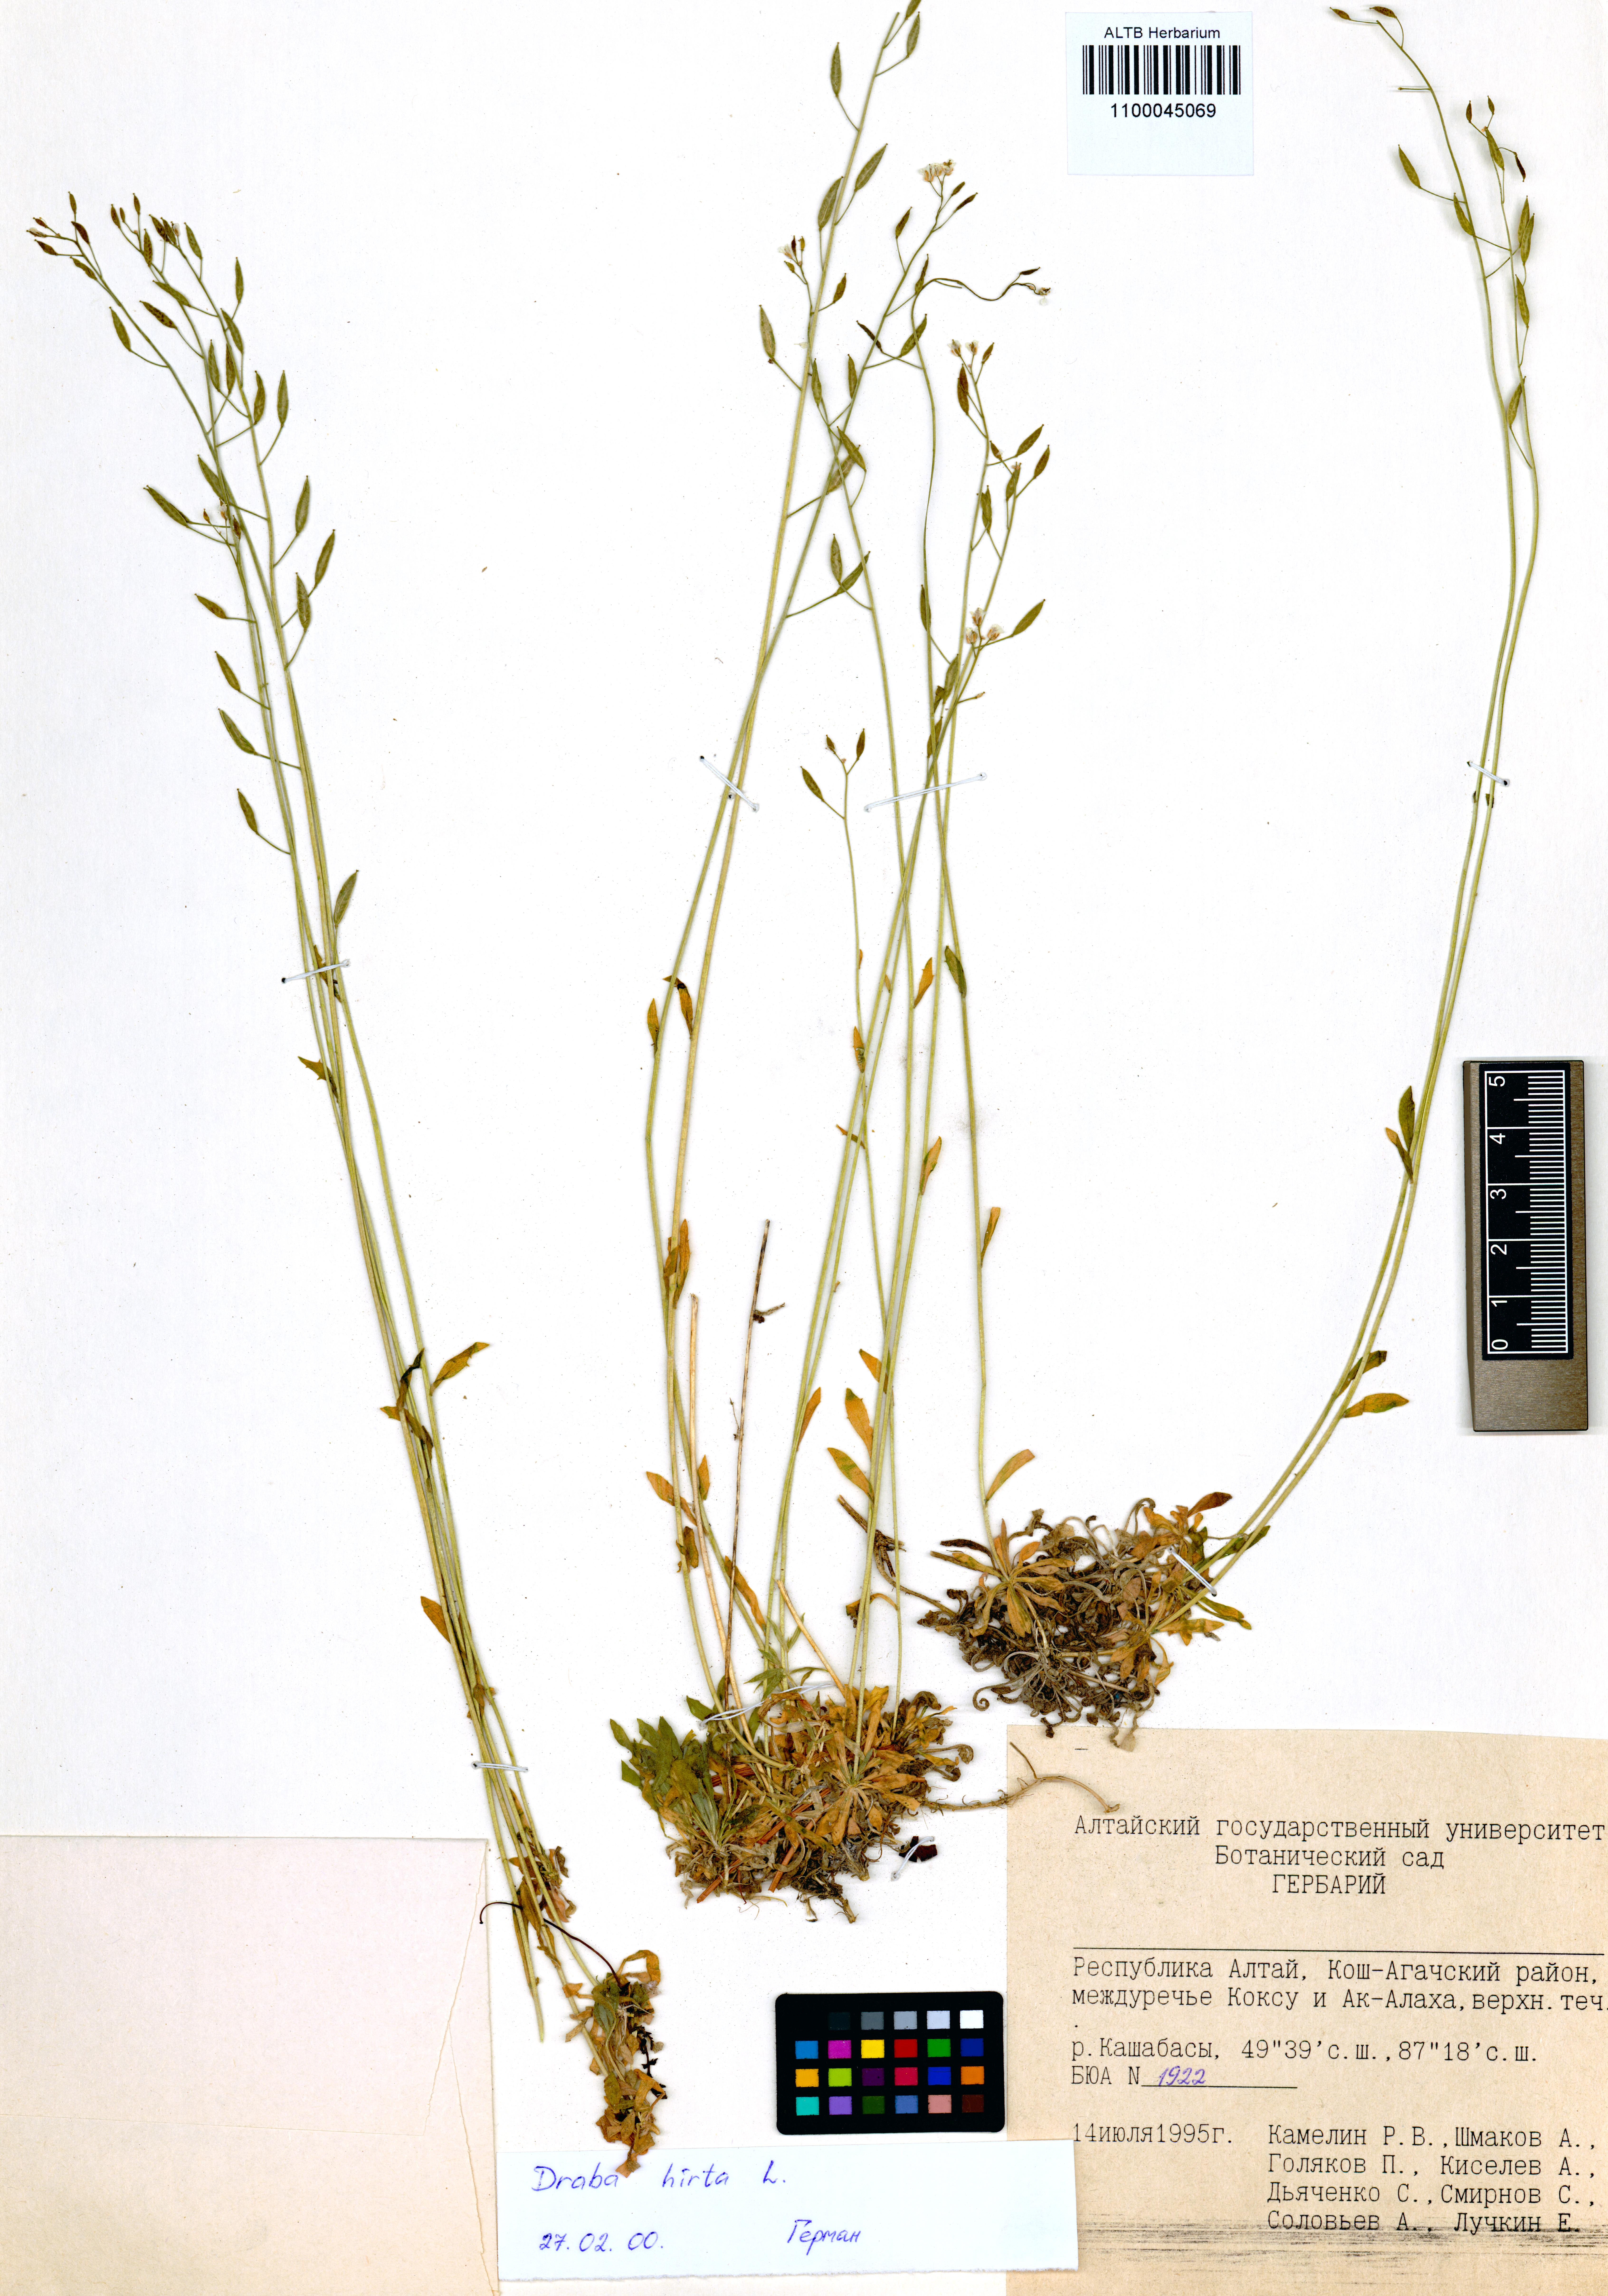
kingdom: Plantae
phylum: Tracheophyta
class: Magnoliopsida
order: Brassicales
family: Brassicaceae
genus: Draba
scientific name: Draba glabella
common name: Glaucous draba
